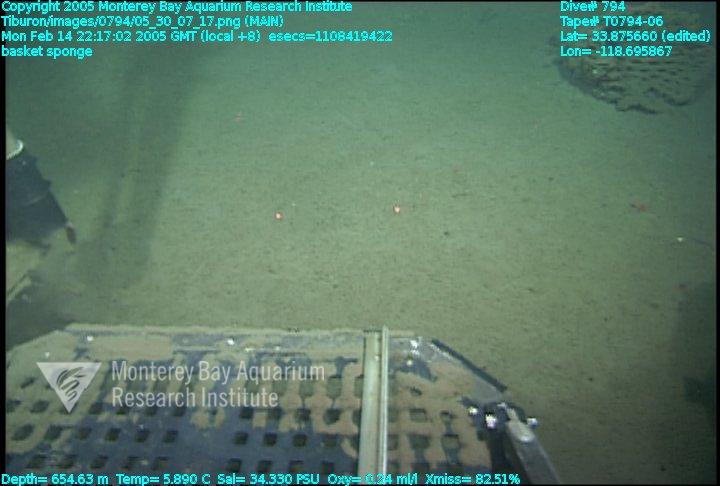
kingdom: Animalia
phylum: Porifera
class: Hexactinellida
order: Sceptrulophora
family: Aphrocallistidae
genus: Heterochone
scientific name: Heterochone calyx
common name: Fingered goblet glass sponge
